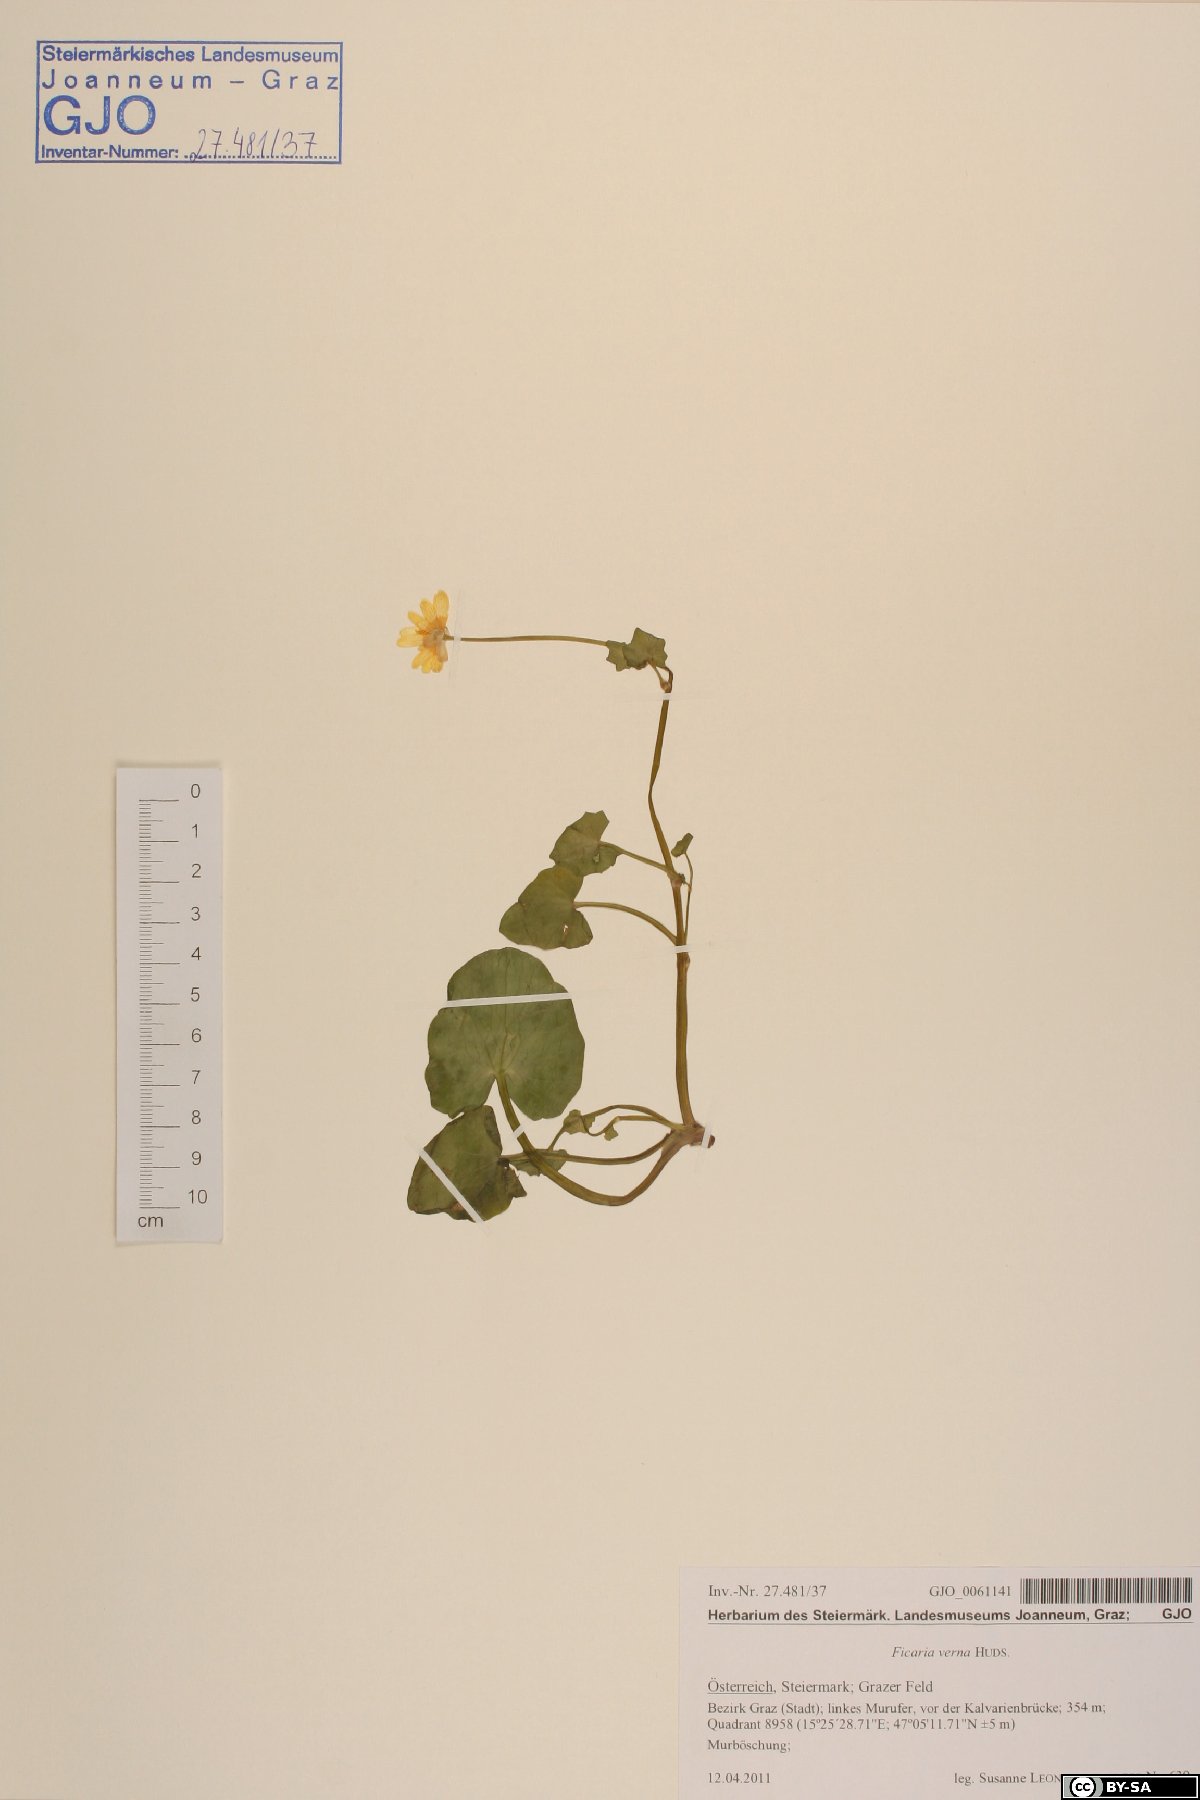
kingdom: Plantae
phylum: Tracheophyta
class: Magnoliopsida
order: Ranunculales
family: Ranunculaceae
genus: Ficaria
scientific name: Ficaria verna
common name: Lesser celandine
